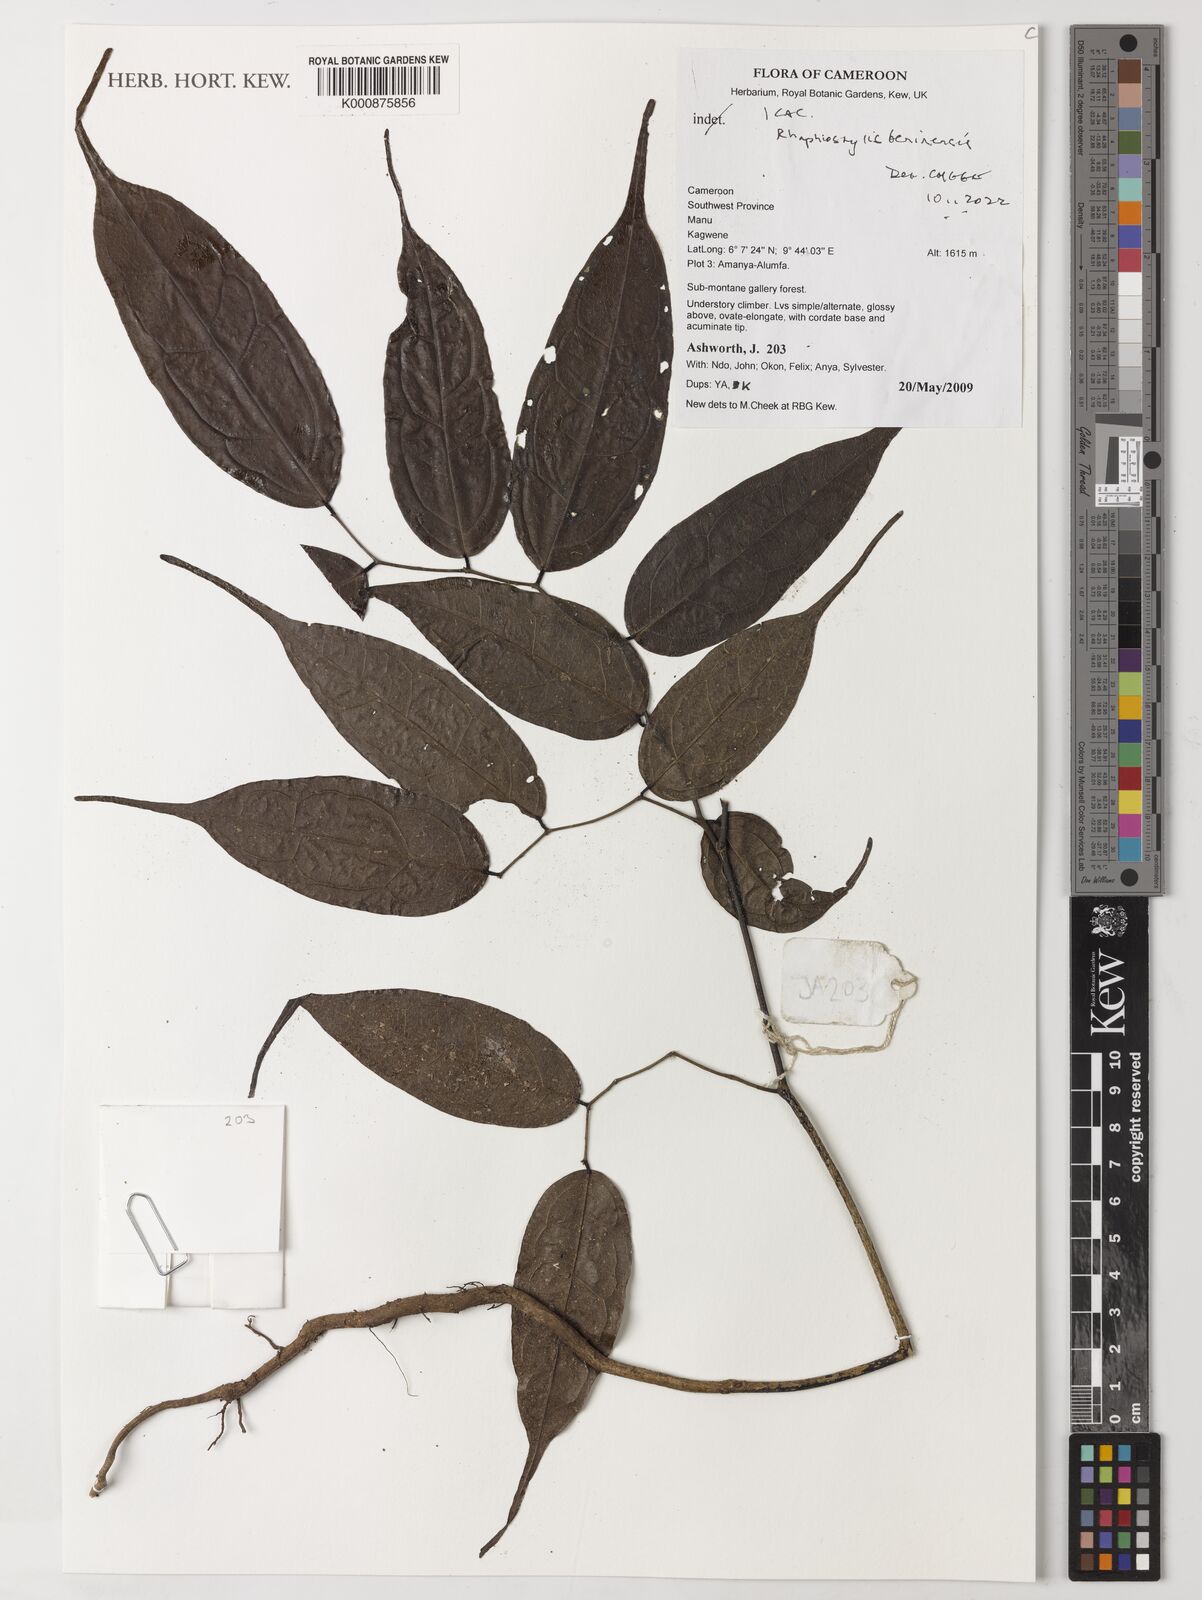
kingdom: Plantae
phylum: Tracheophyta
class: Magnoliopsida
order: Metteniusales
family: Metteniusaceae
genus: Rhaphiostylis
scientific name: Rhaphiostylis beninensis
